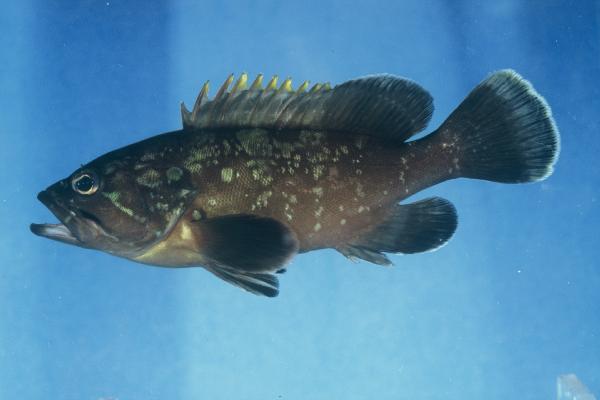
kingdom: Animalia
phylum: Chordata
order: Perciformes
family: Serranidae
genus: Epinephelus
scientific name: Epinephelus marginatus
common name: Dusky grouper
